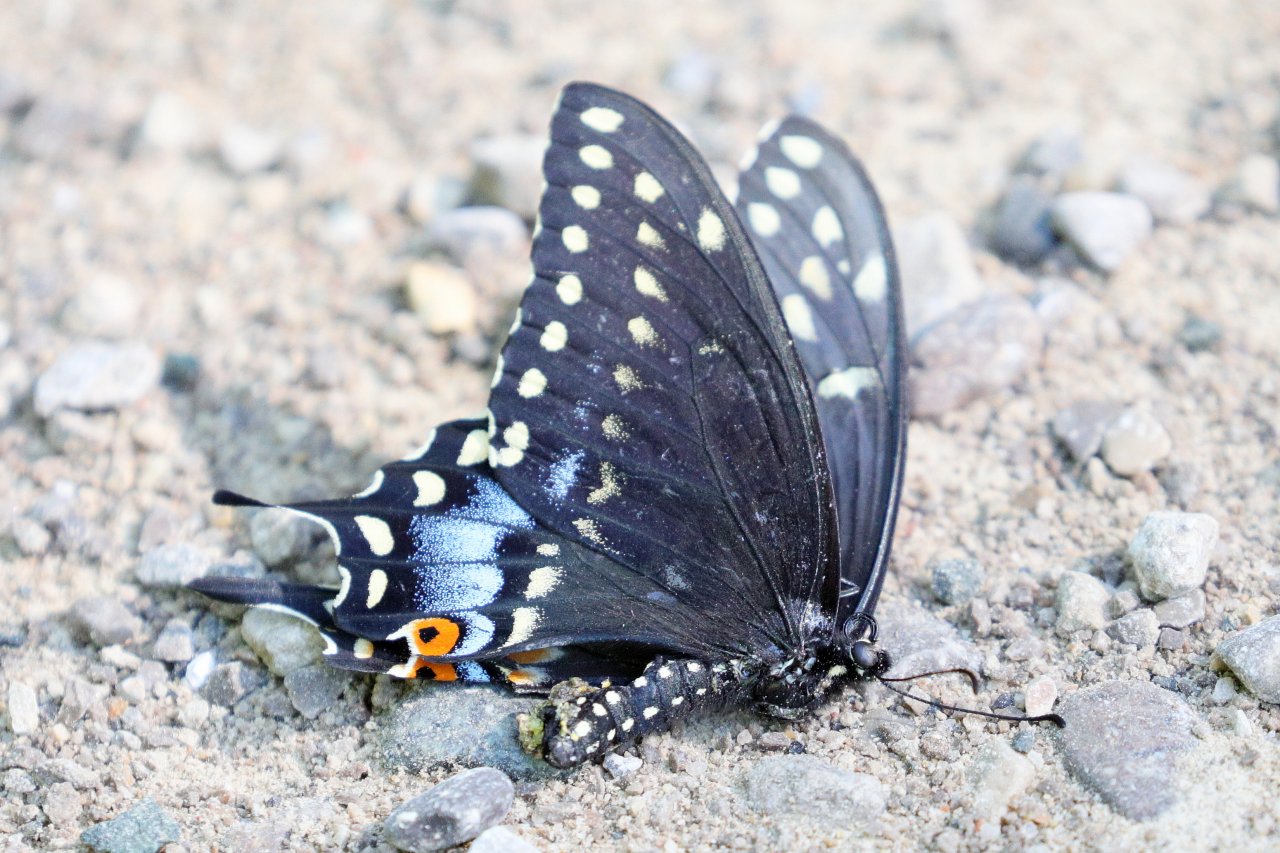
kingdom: Animalia
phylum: Arthropoda
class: Insecta
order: Lepidoptera
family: Papilionidae
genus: Papilio
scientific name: Papilio polyxenes
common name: Black Swallowtail
